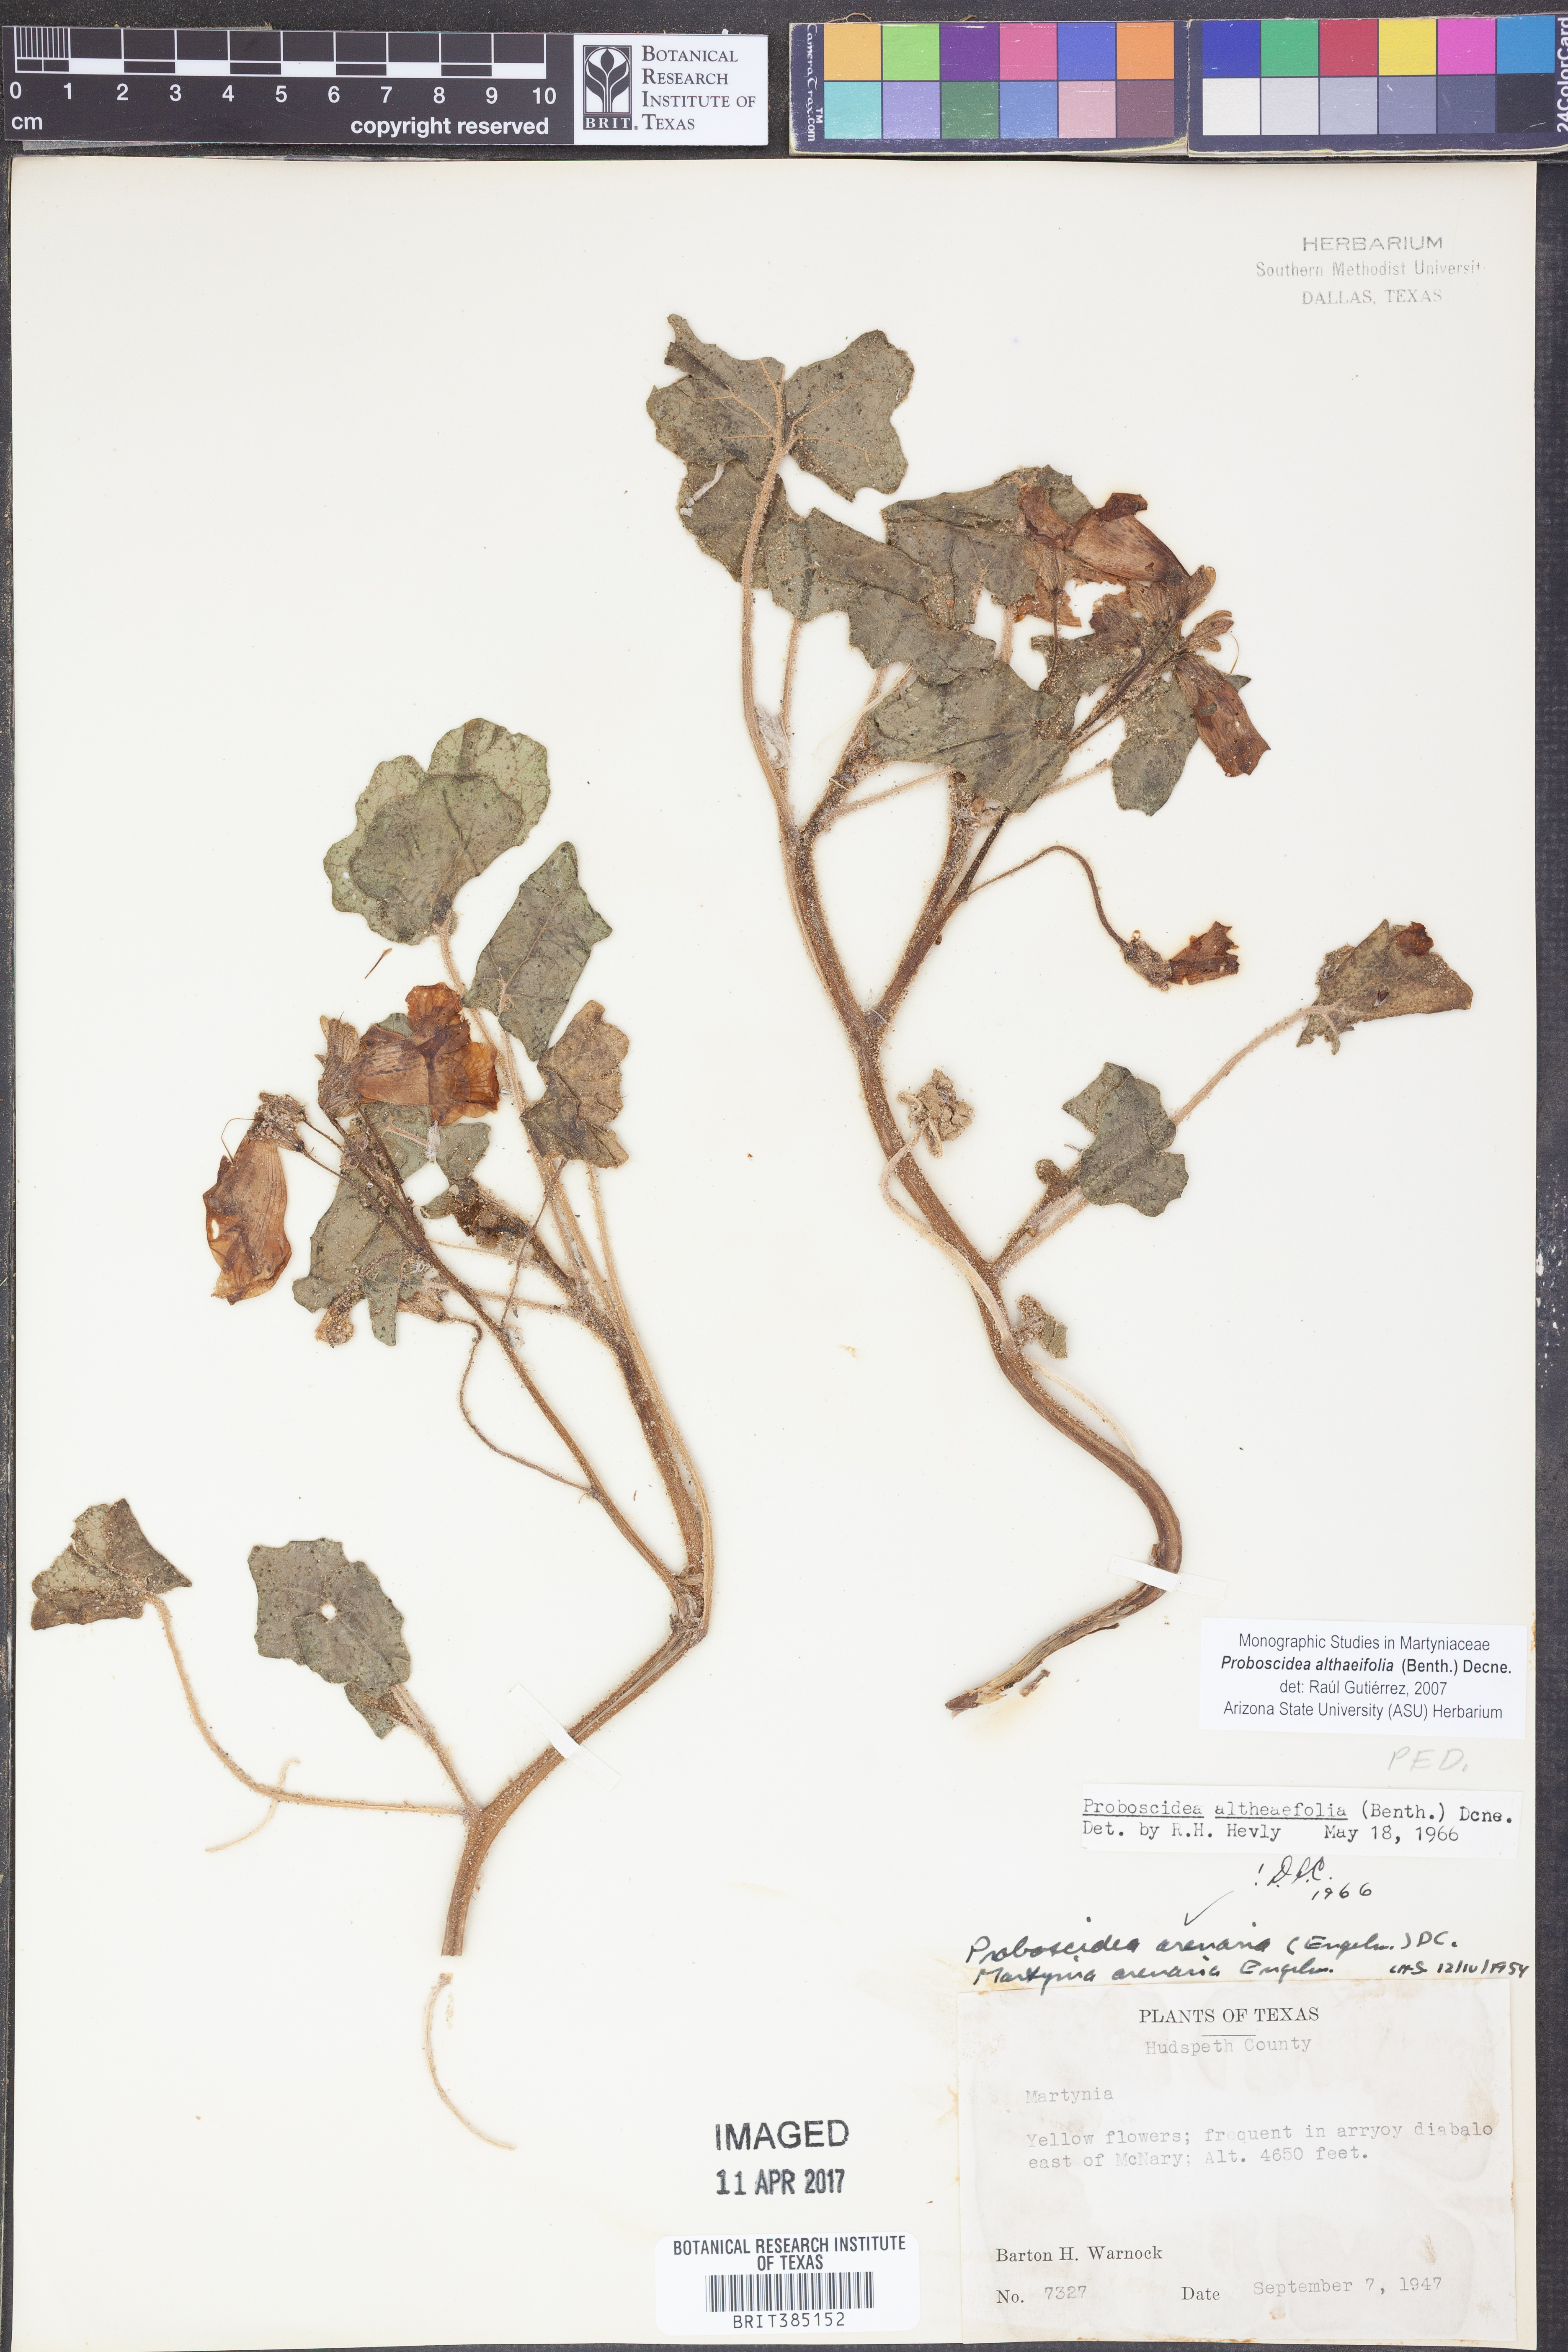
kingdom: Plantae
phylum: Tracheophyta
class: Magnoliopsida
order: Lamiales
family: Martyniaceae
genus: Proboscidea
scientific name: Proboscidea althaeifolia
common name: Desert unicorn-plant
